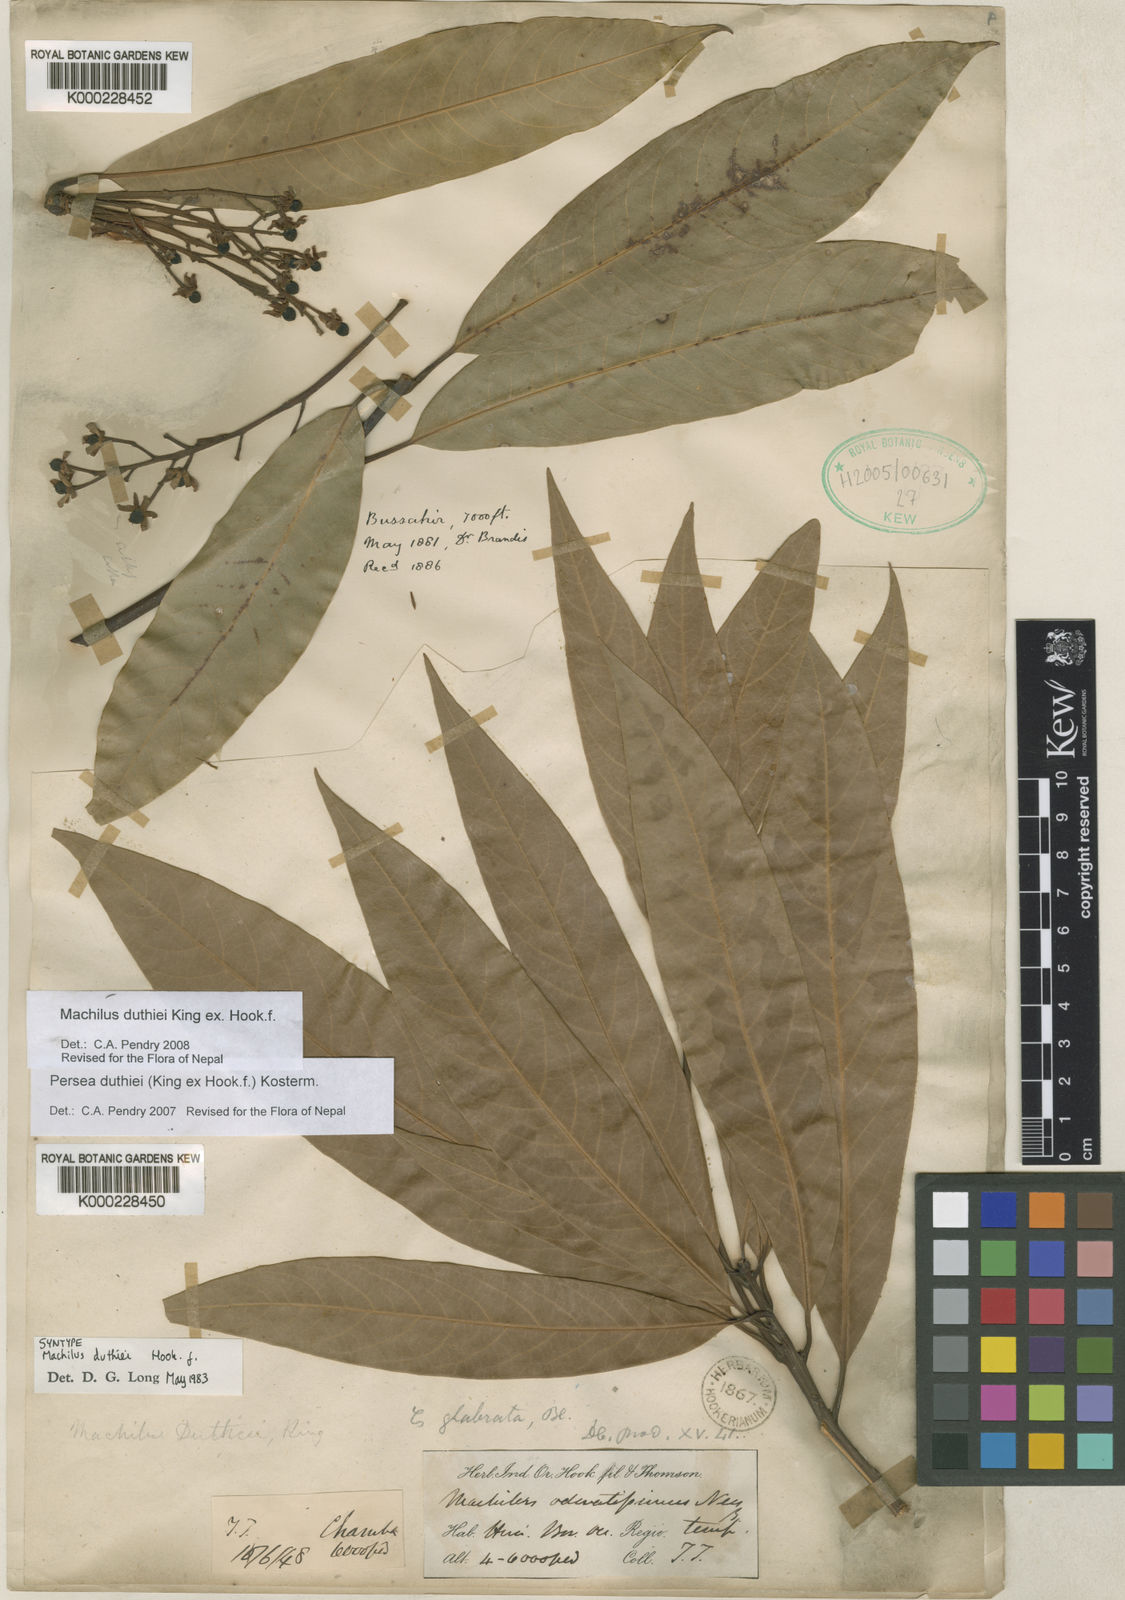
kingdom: Plantae
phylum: Tracheophyta
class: Magnoliopsida
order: Laurales
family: Lauraceae
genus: Machilus
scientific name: Machilus duthiei
